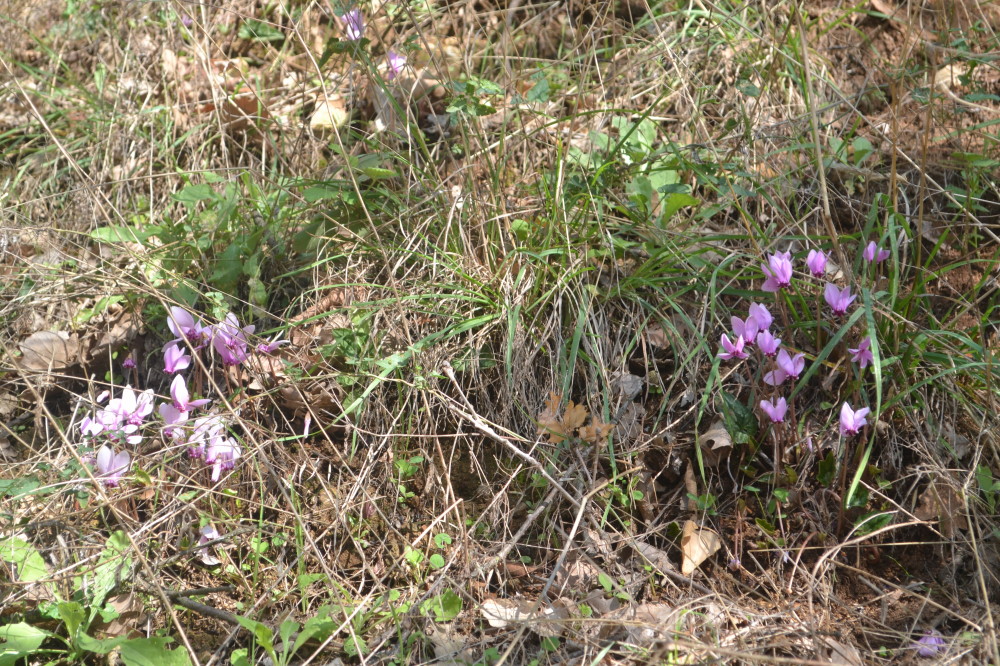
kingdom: Plantae
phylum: Tracheophyta
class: Magnoliopsida
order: Ericales
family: Primulaceae
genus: Cyclamen
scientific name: Cyclamen hederifolium
